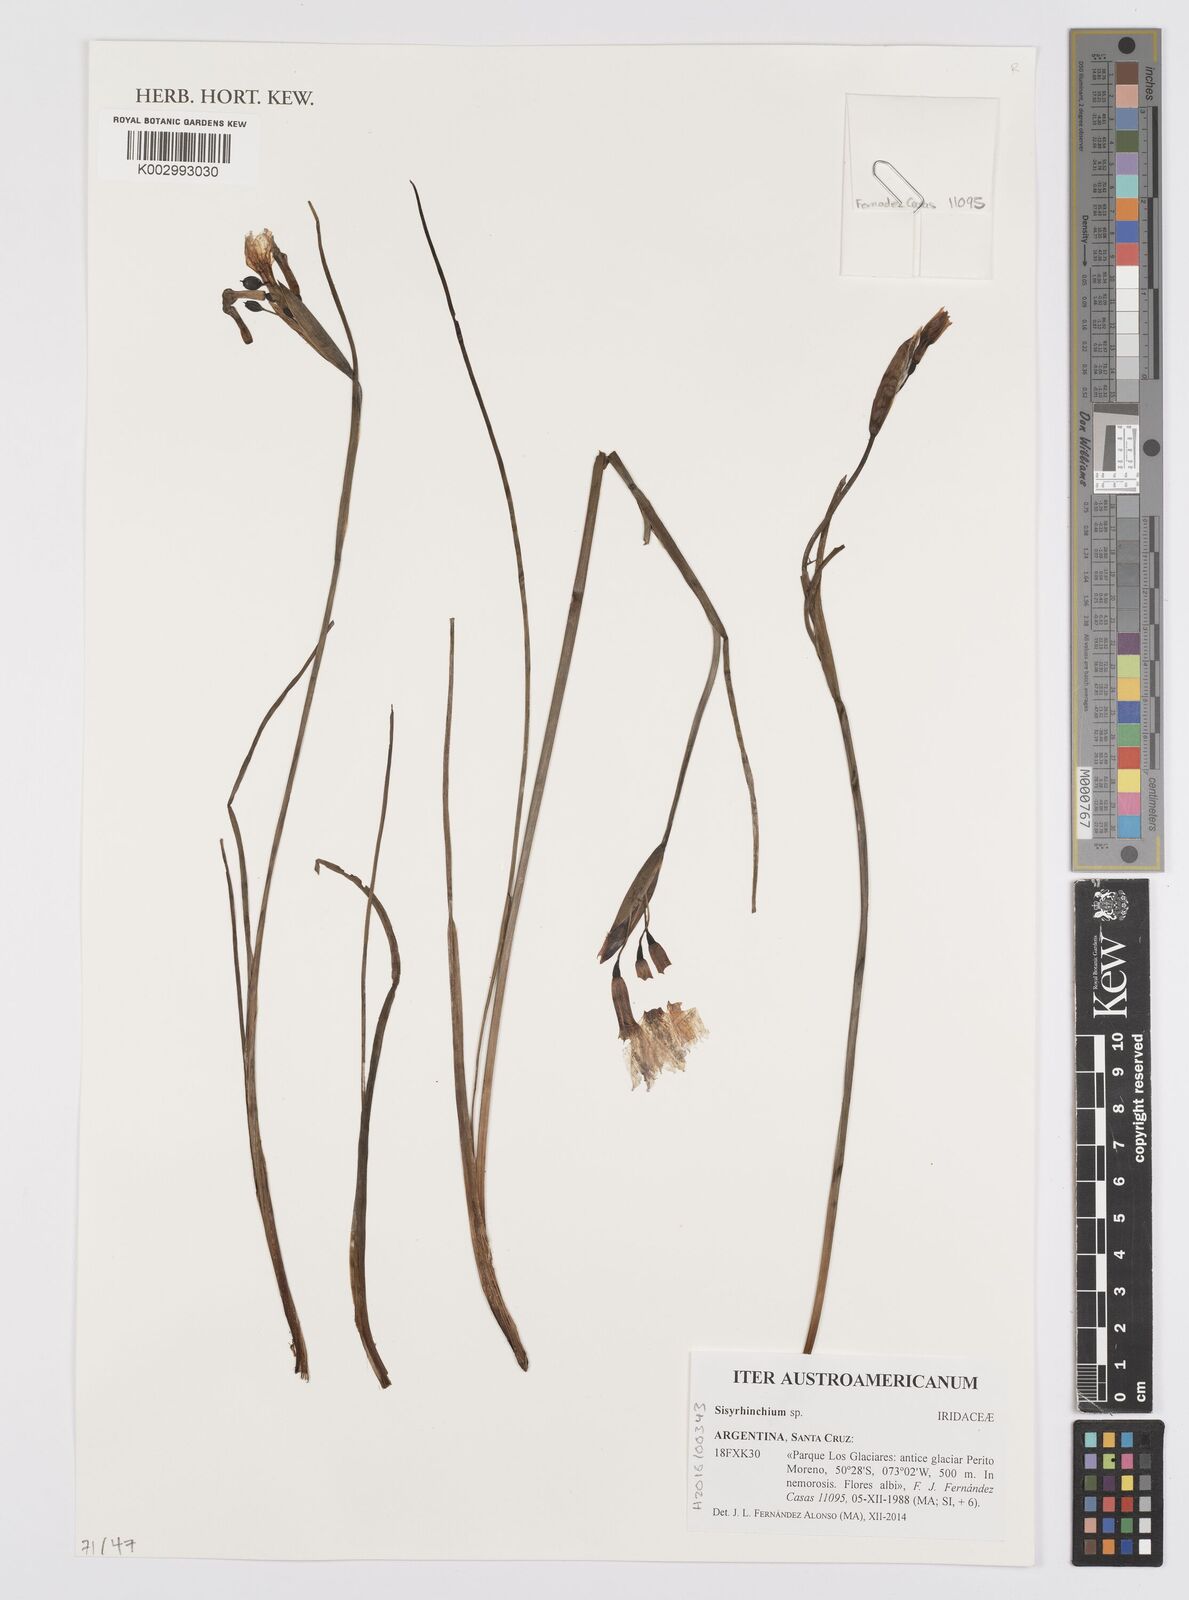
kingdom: Plantae
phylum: Tracheophyta
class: Liliopsida
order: Asparagales
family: Iridaceae
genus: Sisyrinchium
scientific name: Sisyrinchium
